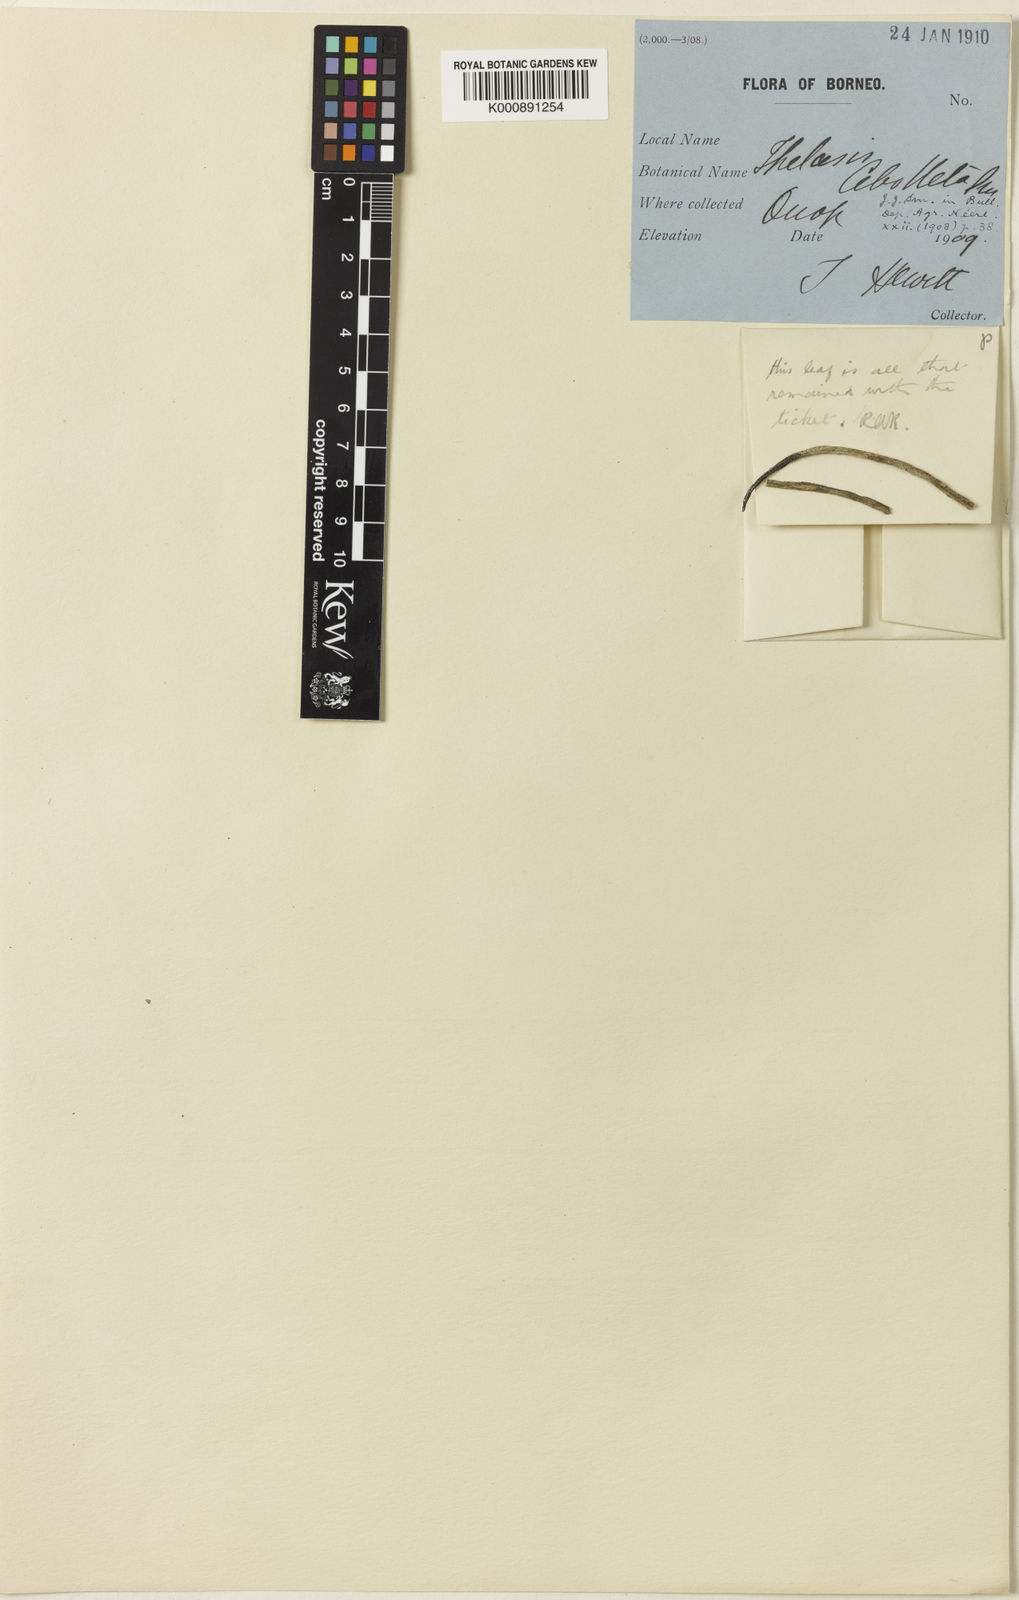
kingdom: Plantae
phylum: Tracheophyta
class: Liliopsida
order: Asparagales
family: Orchidaceae
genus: Thelasis
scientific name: Thelasis cebolleta
